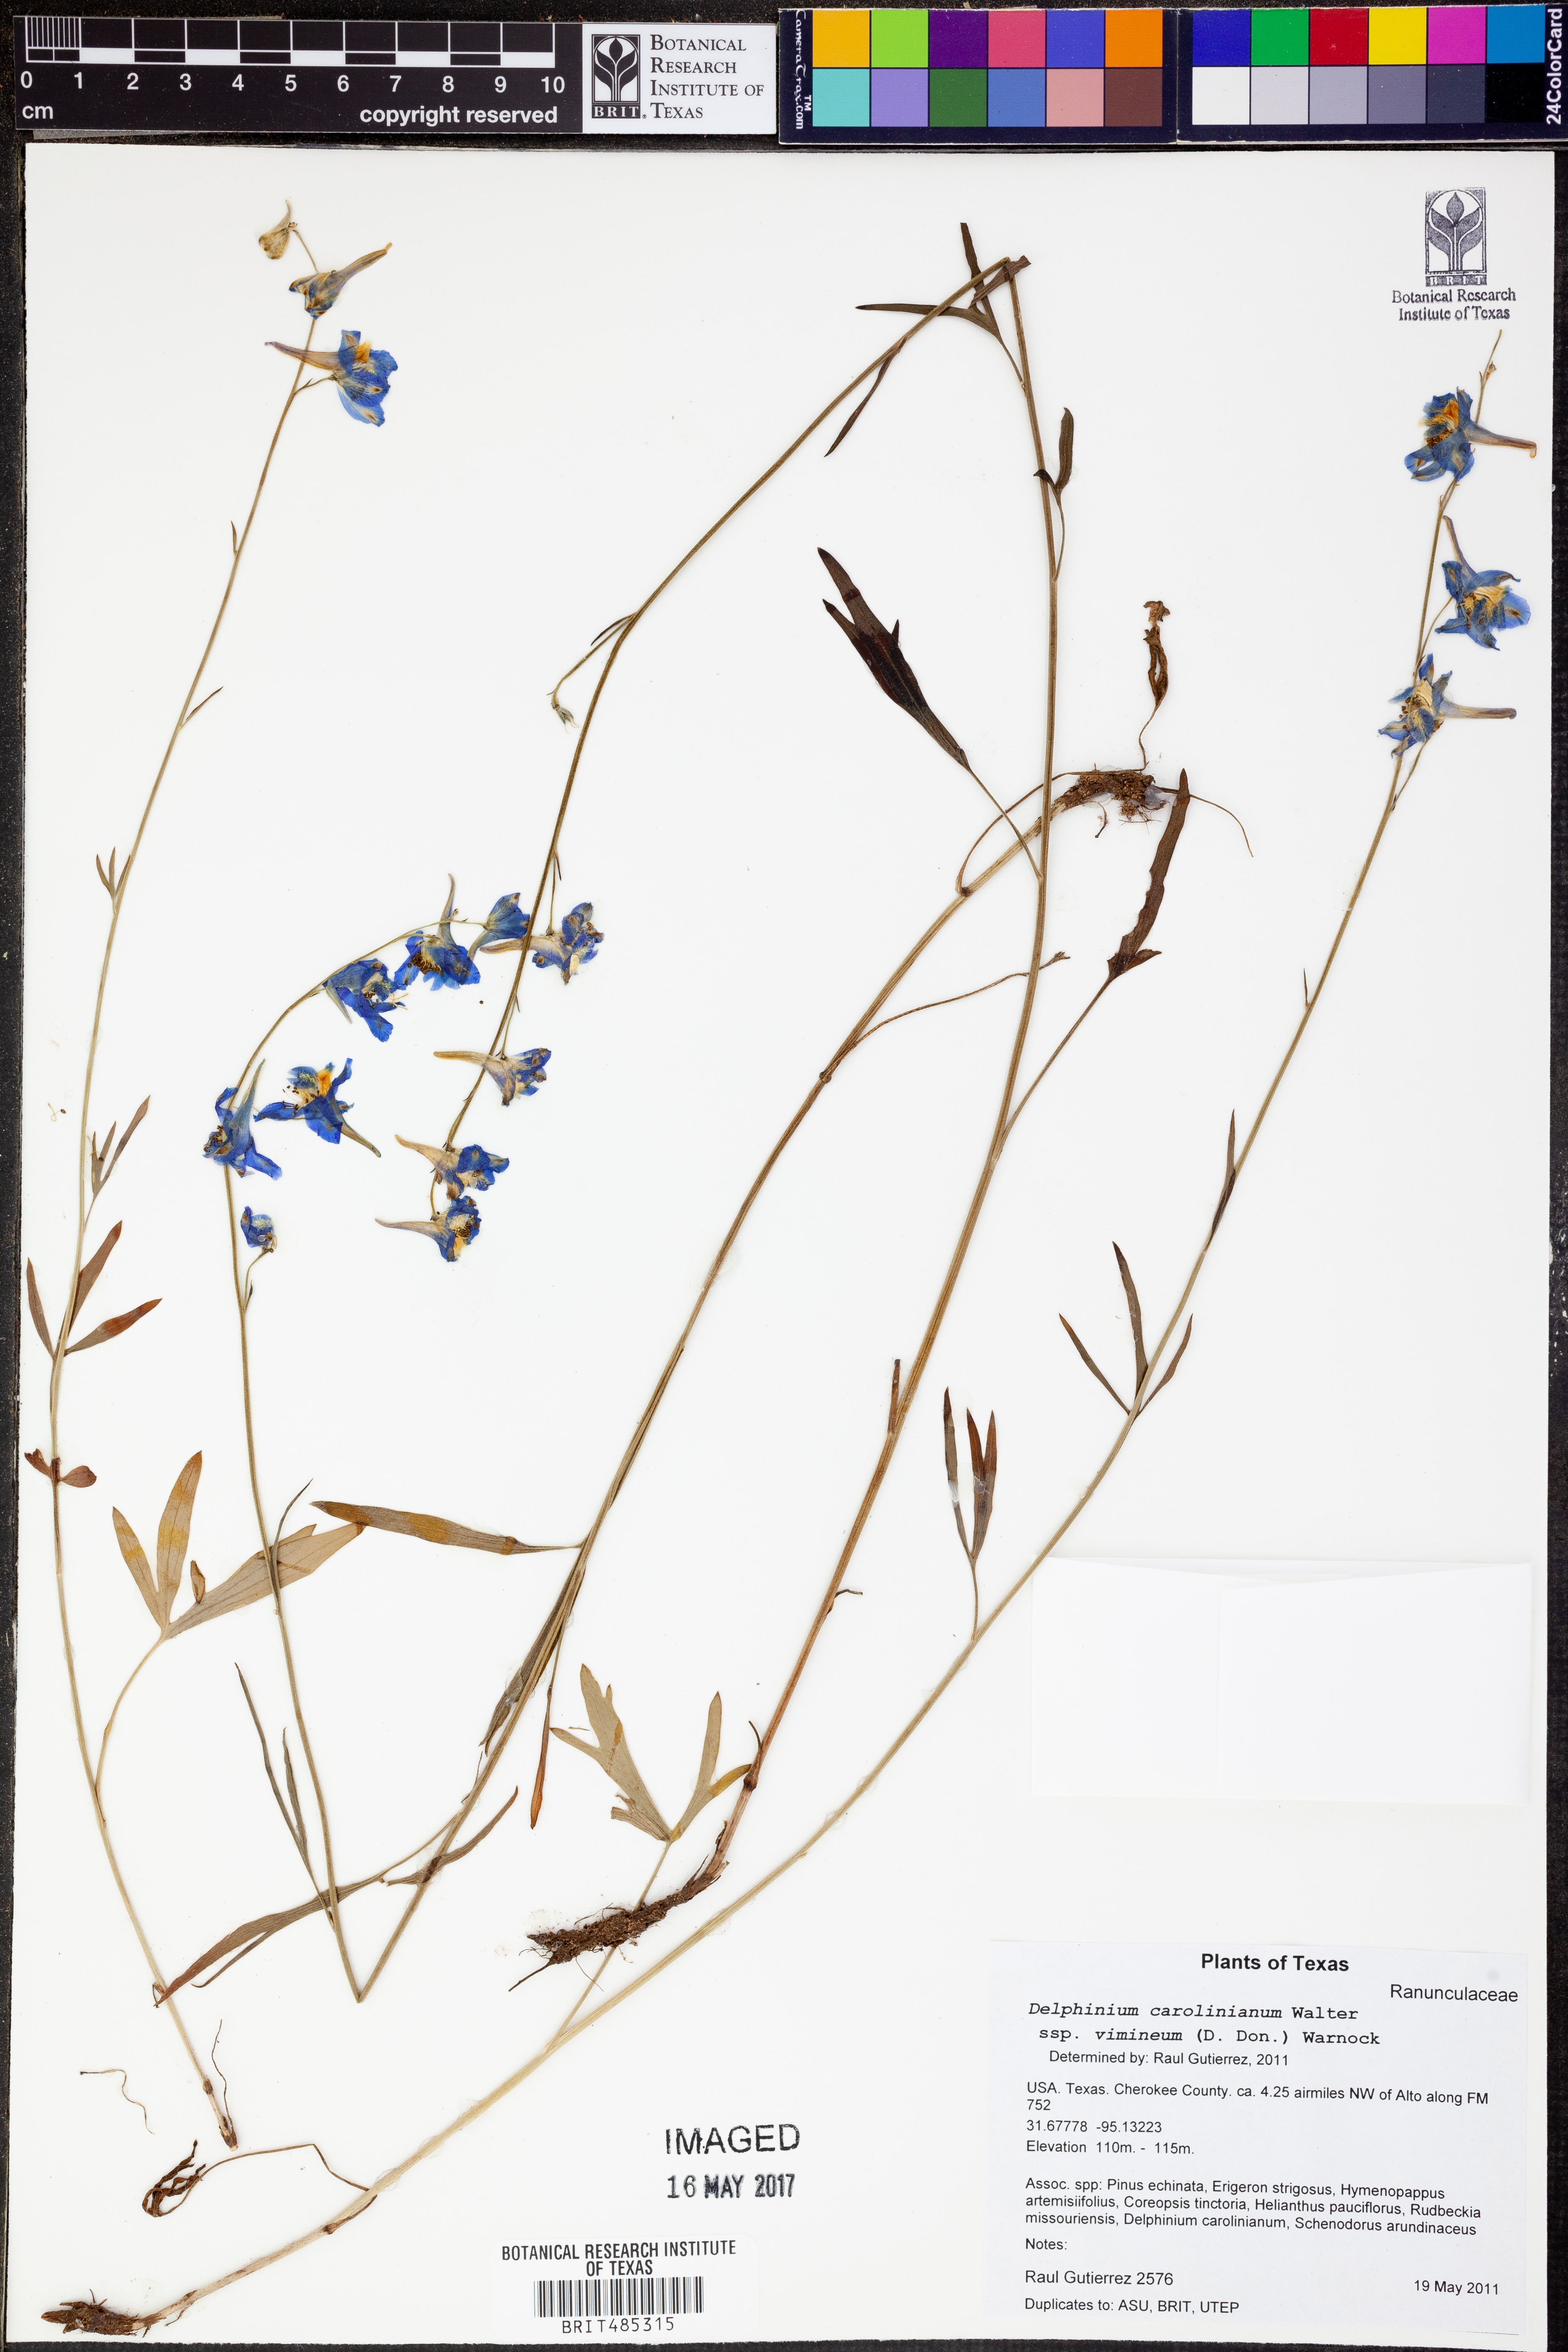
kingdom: Plantae
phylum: Tracheophyta
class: Magnoliopsida
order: Ranunculales
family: Ranunculaceae
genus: Delphinium
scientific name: Delphinium carolinianum
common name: Carolina larkspur
